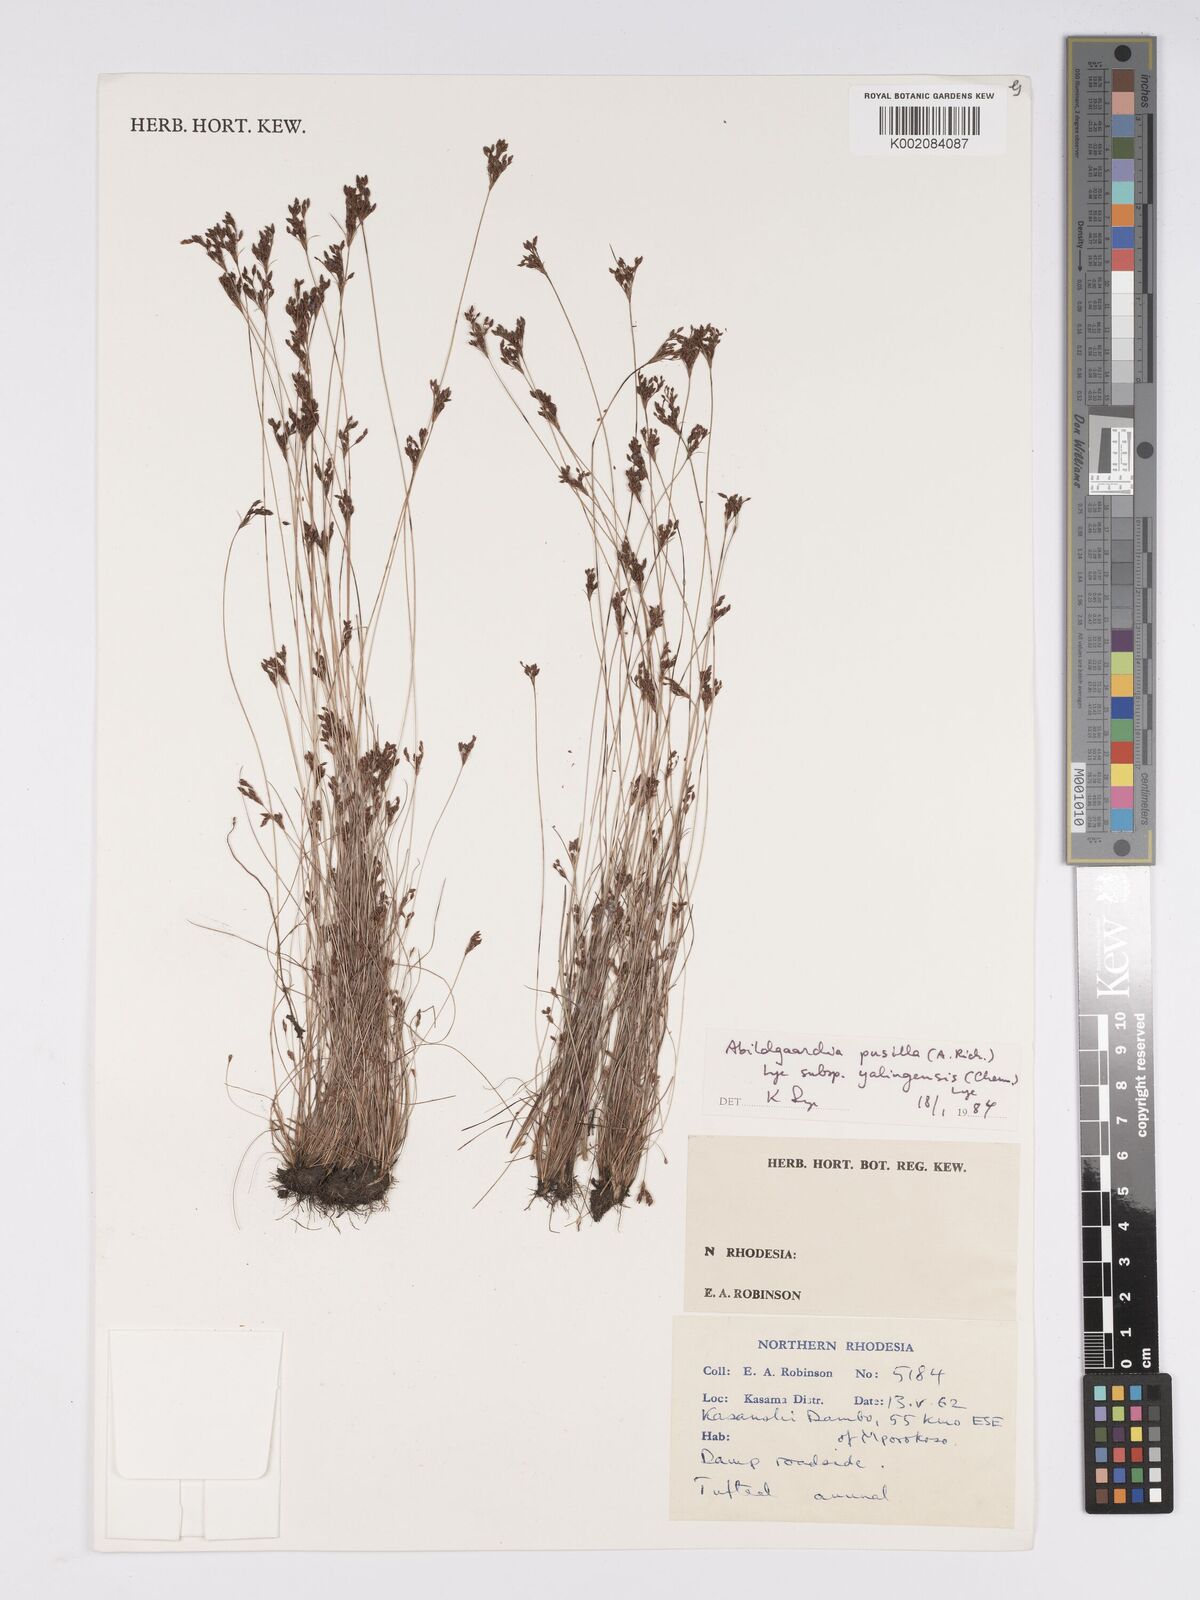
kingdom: Plantae
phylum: Tracheophyta
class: Liliopsida
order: Poales
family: Cyperaceae
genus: Bulbostylis
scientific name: Bulbostylis pusilla
